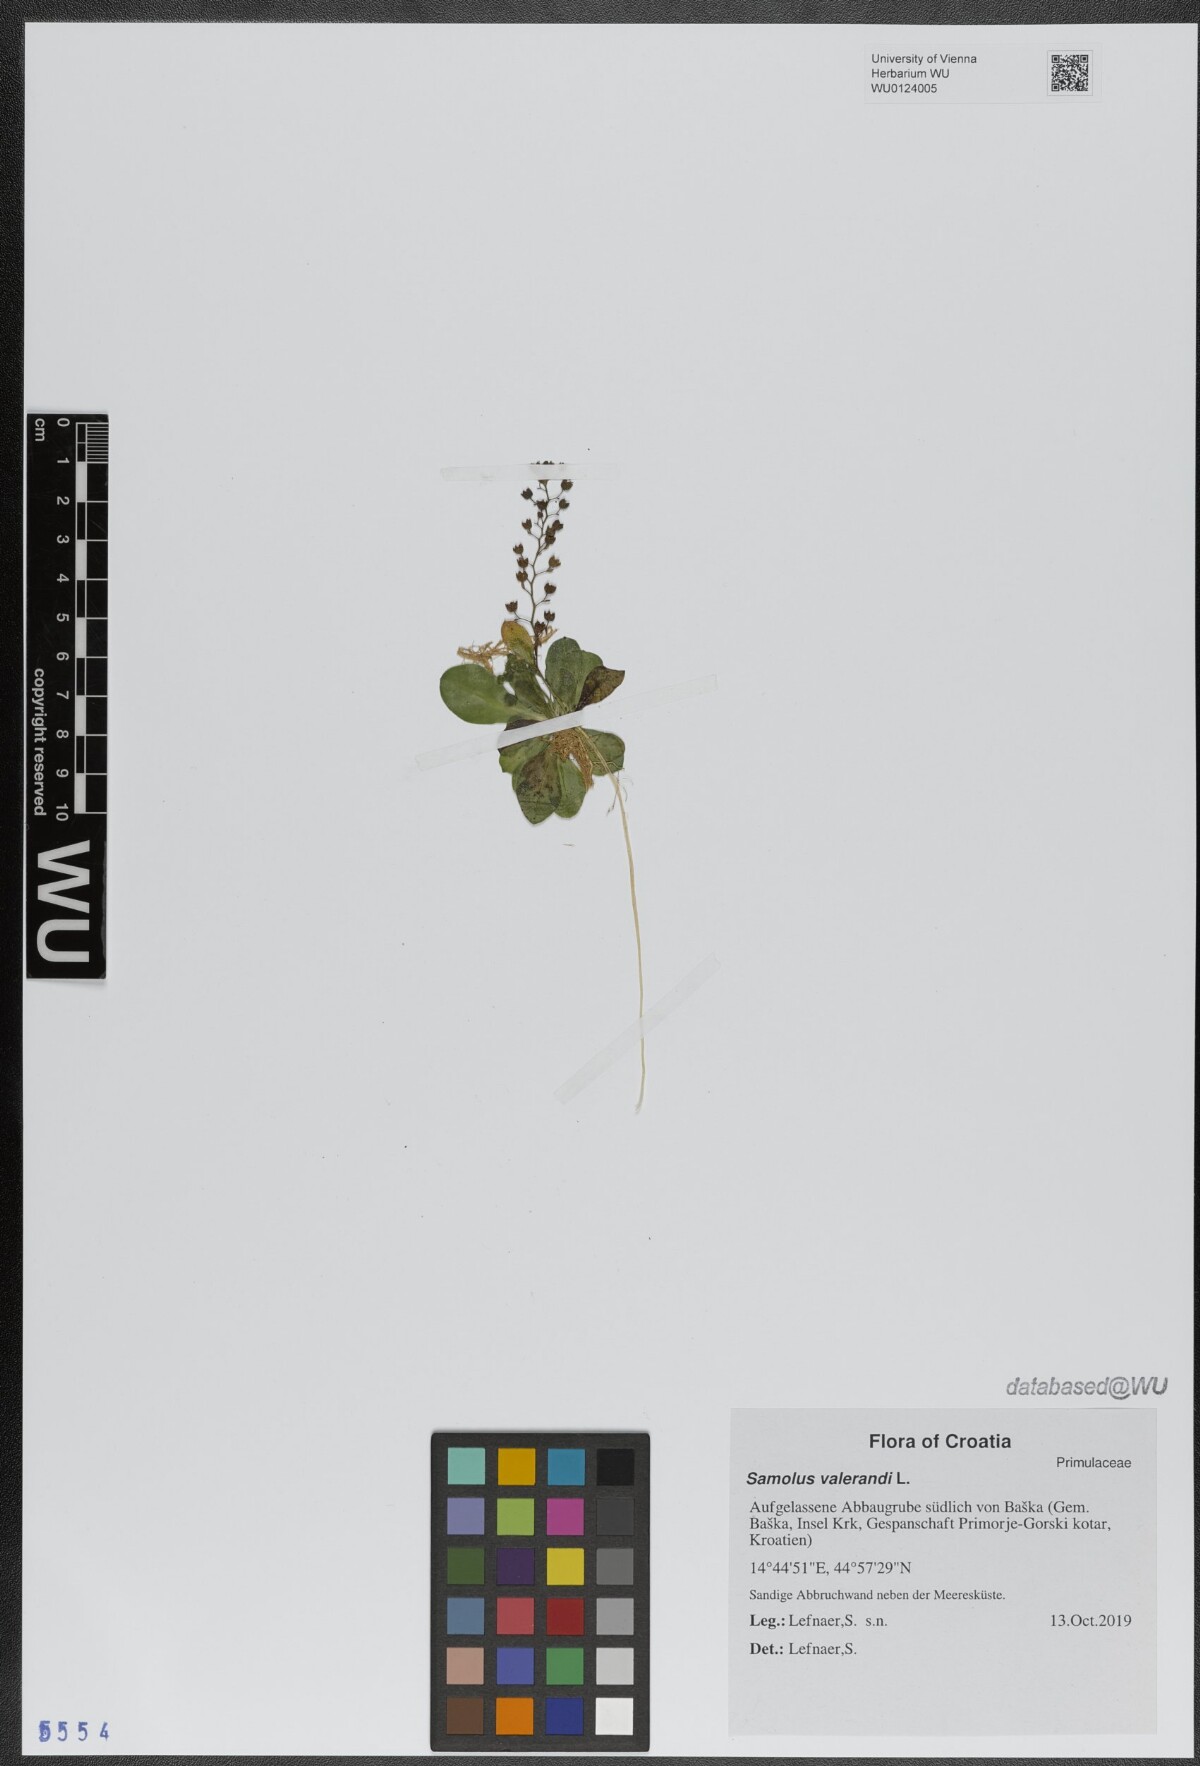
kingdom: Plantae
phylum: Tracheophyta
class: Magnoliopsida
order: Ericales
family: Primulaceae
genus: Samolus
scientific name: Samolus valerandi
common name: Brookweed
